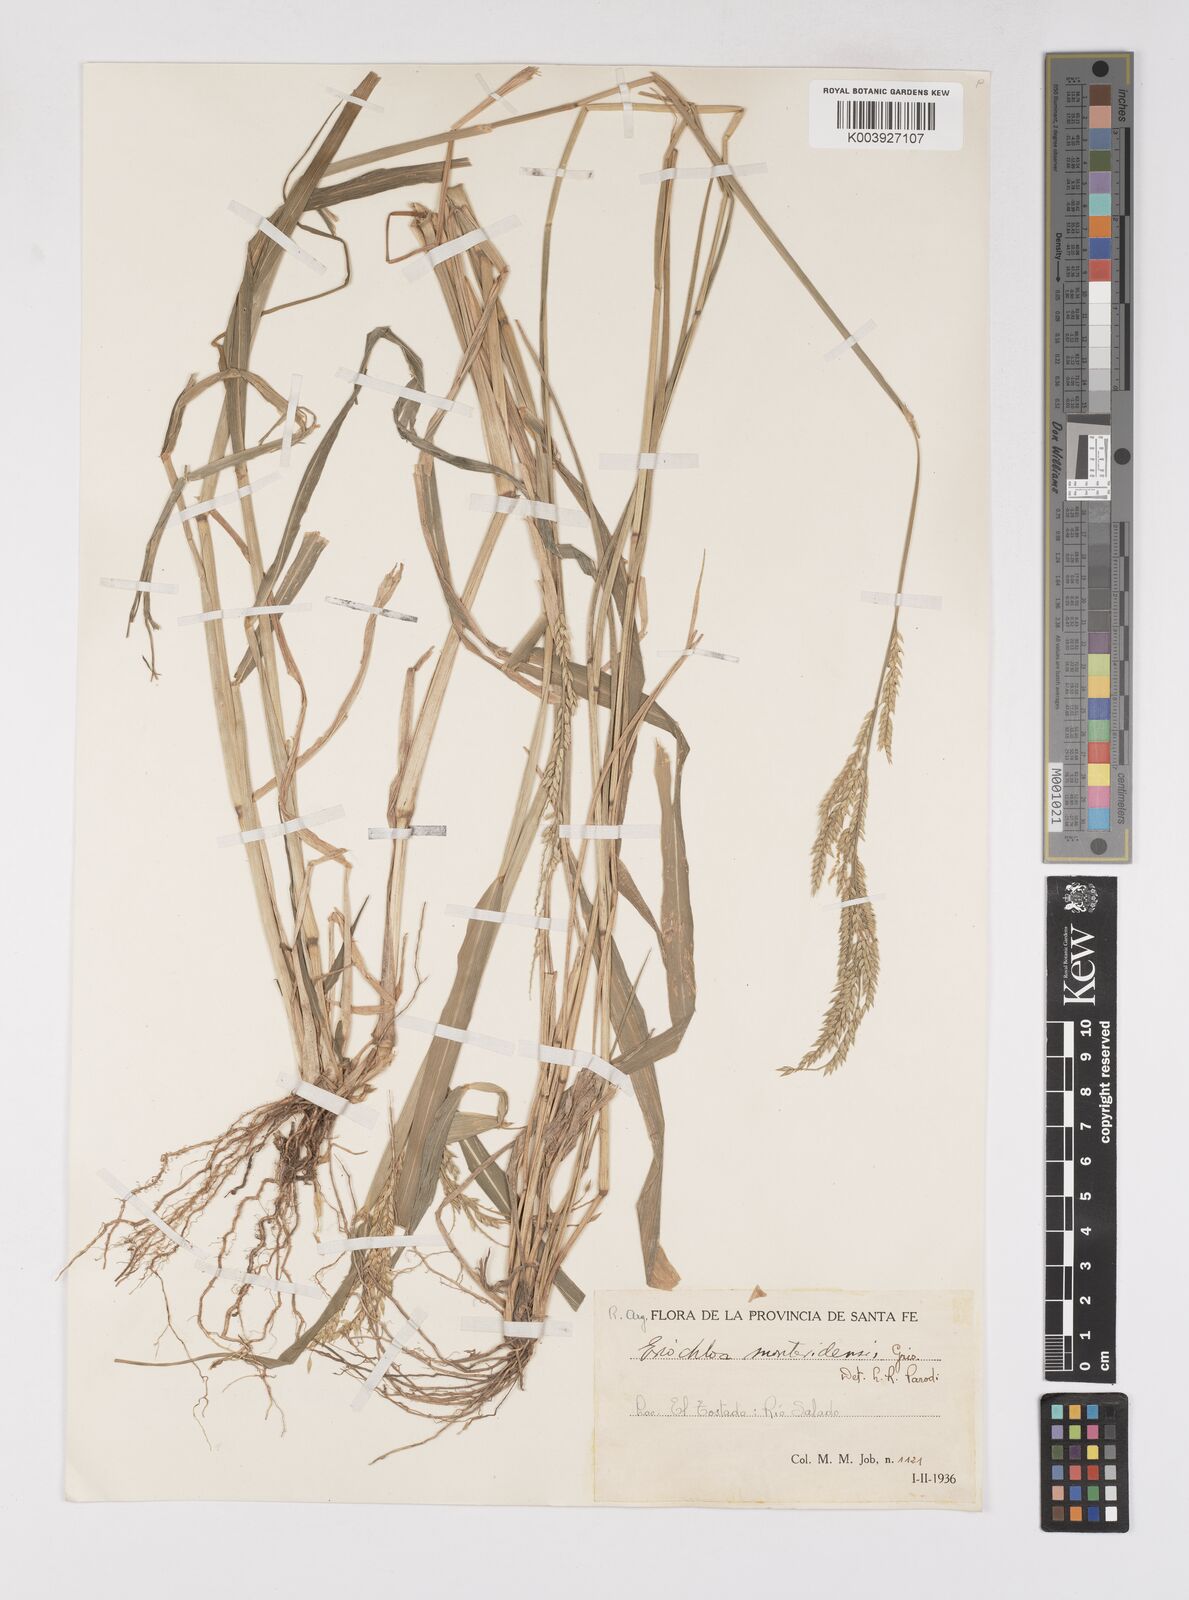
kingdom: Plantae
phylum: Tracheophyta
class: Liliopsida
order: Poales
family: Poaceae
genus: Eriochloa
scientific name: Eriochloa punctata
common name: Louisiana cupgrass
